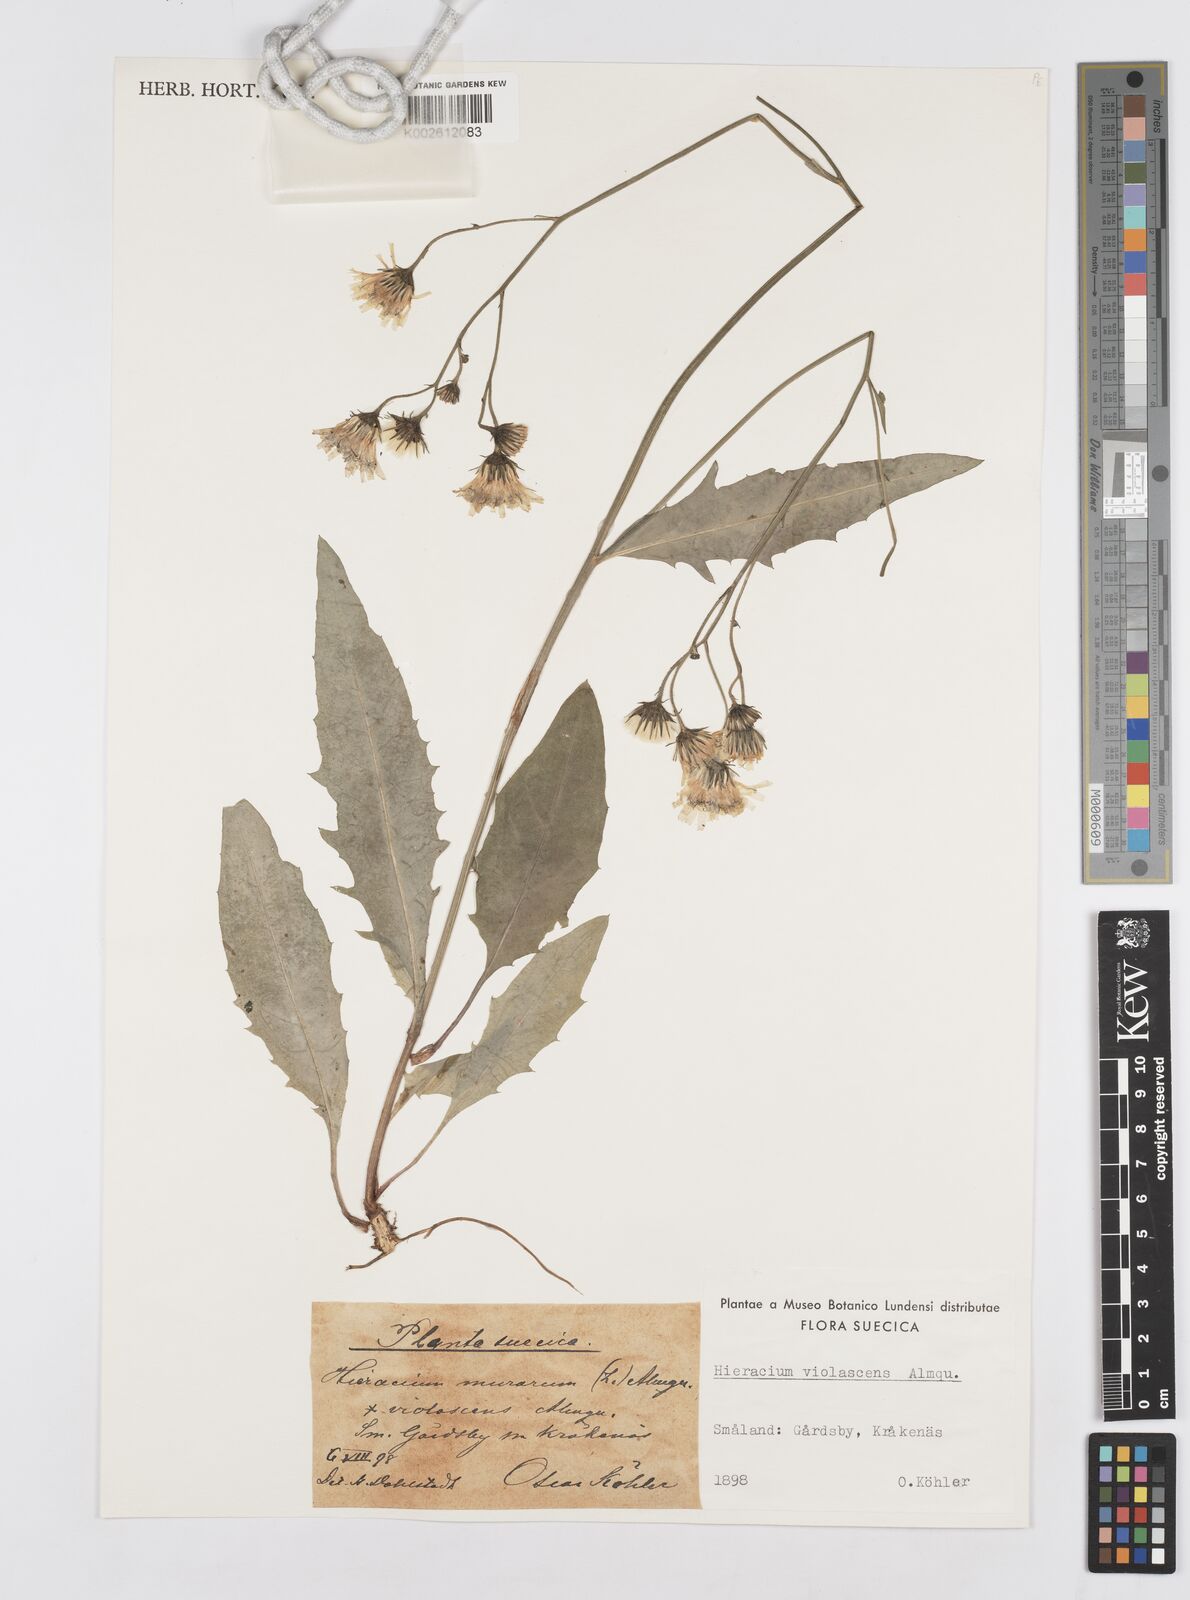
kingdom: Plantae
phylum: Tracheophyta
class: Magnoliopsida
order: Asterales
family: Asteraceae
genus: Hieracium
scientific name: Hieracium lachenalii
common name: Common hawkweed
